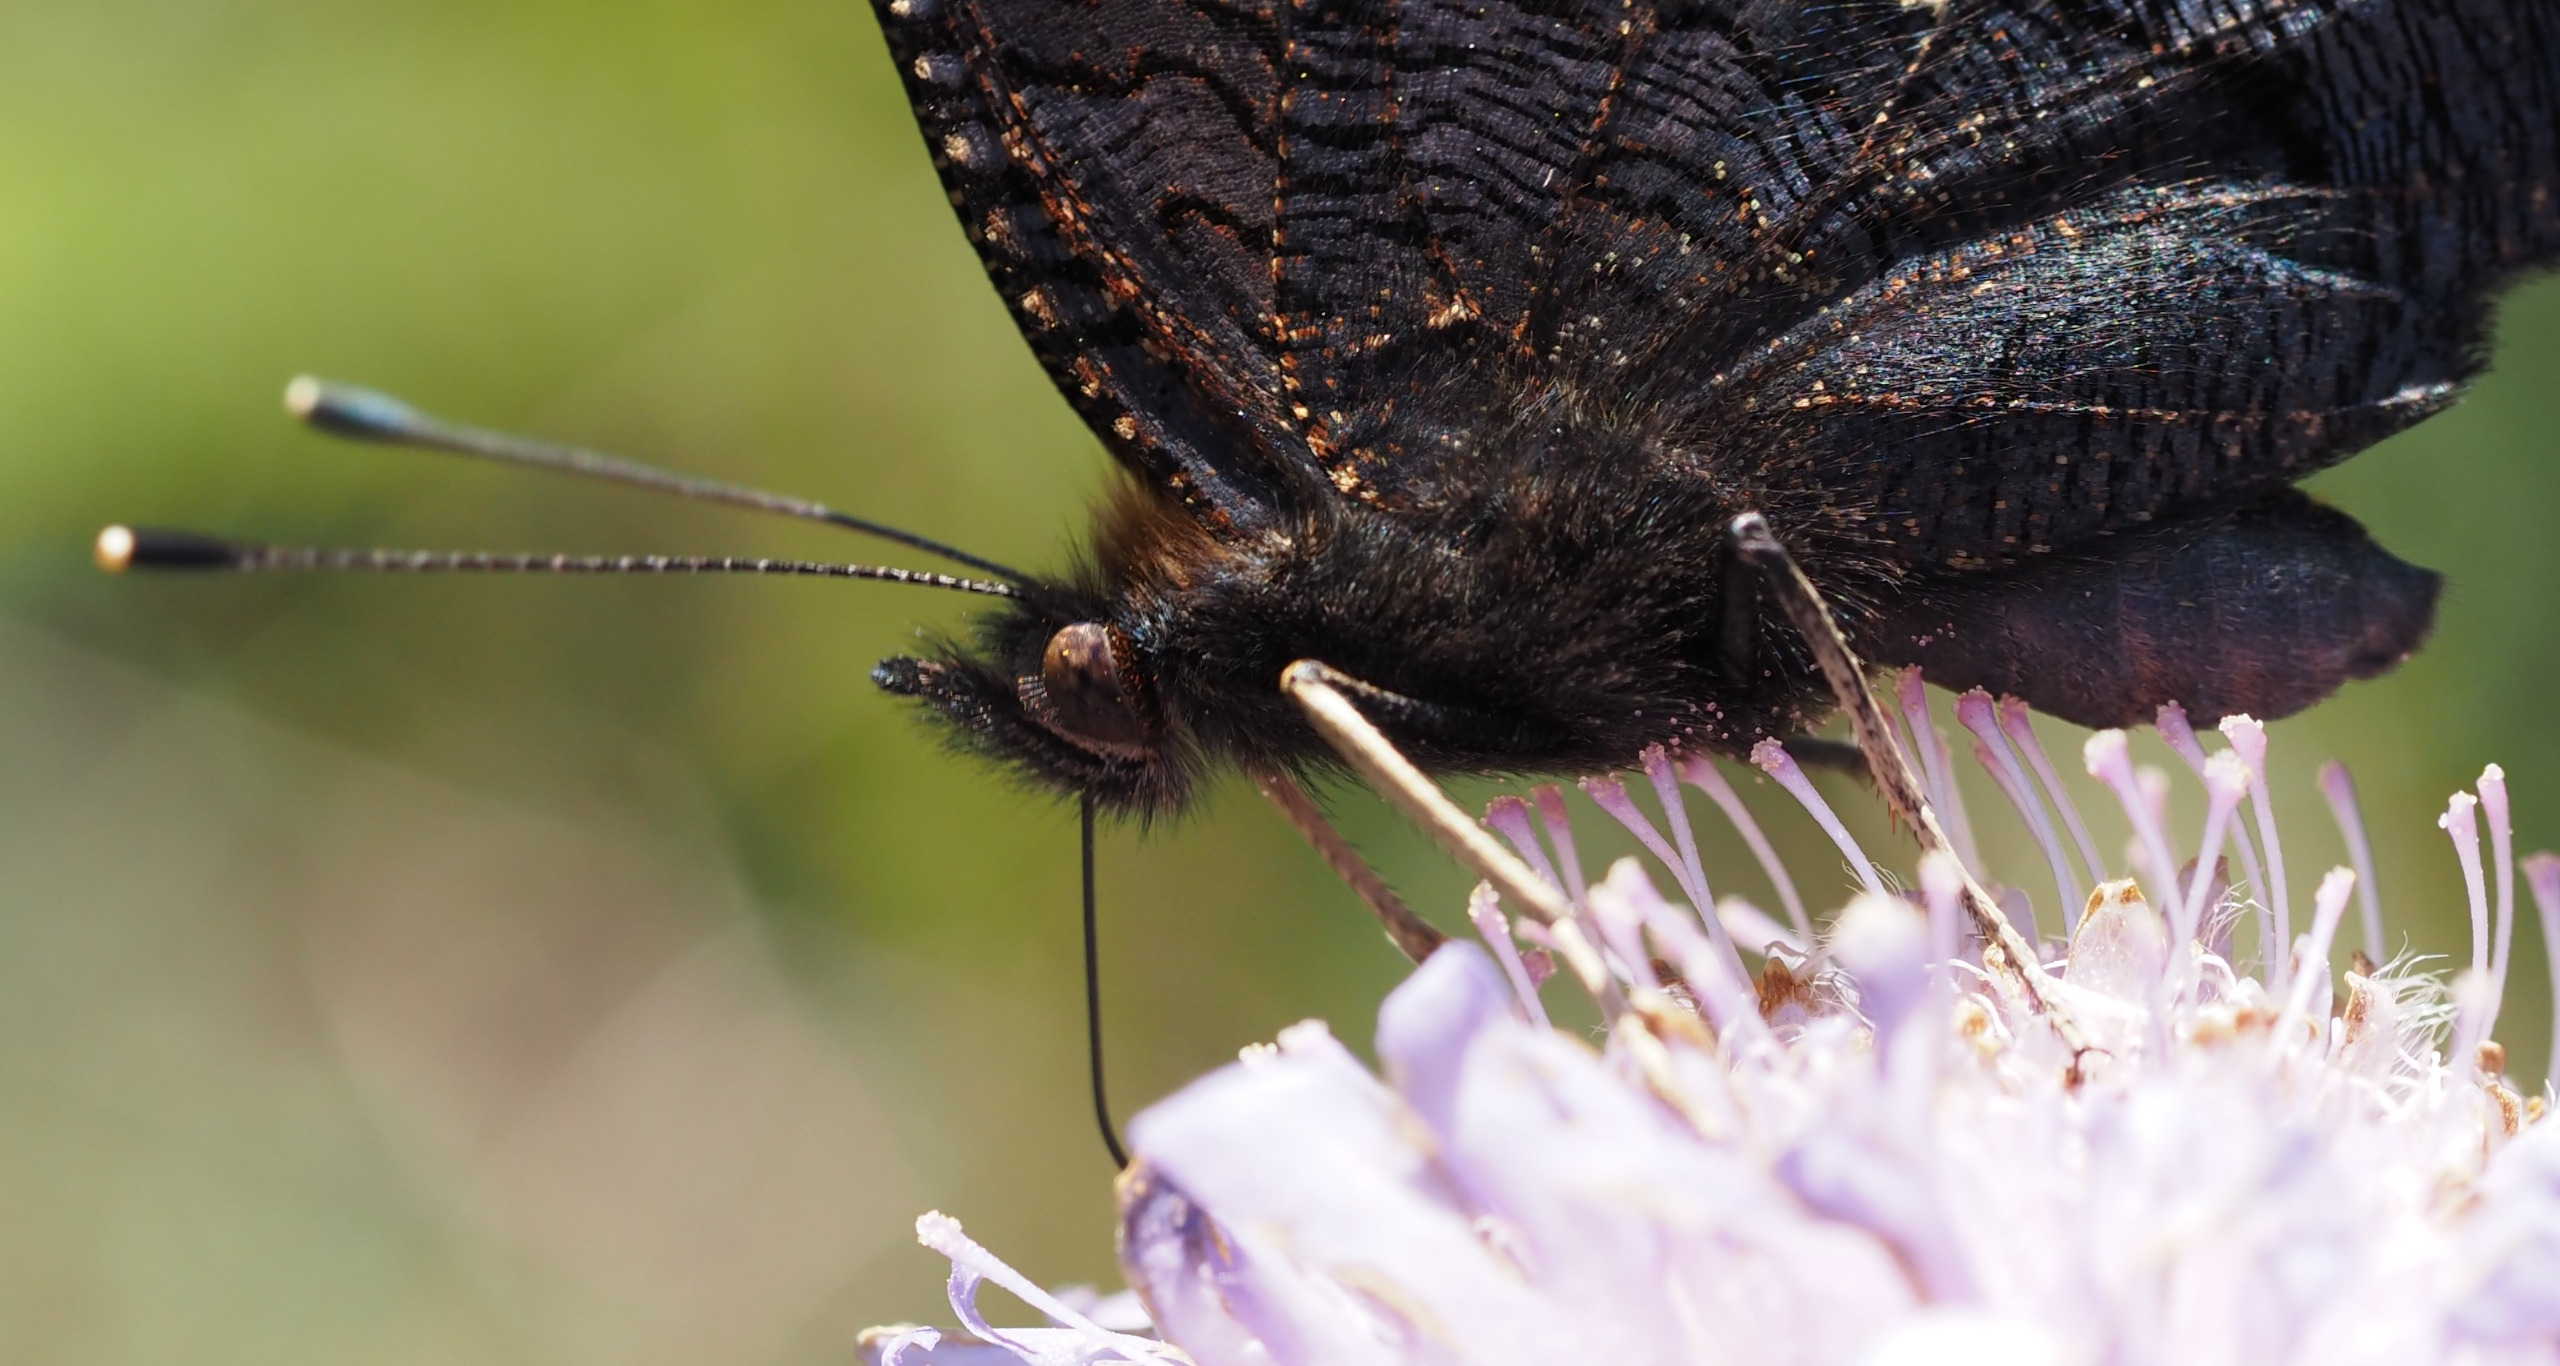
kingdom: Animalia
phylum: Arthropoda
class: Insecta
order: Lepidoptera
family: Nymphalidae
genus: Aglais
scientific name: Aglais io
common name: Dagpåfugleøje
